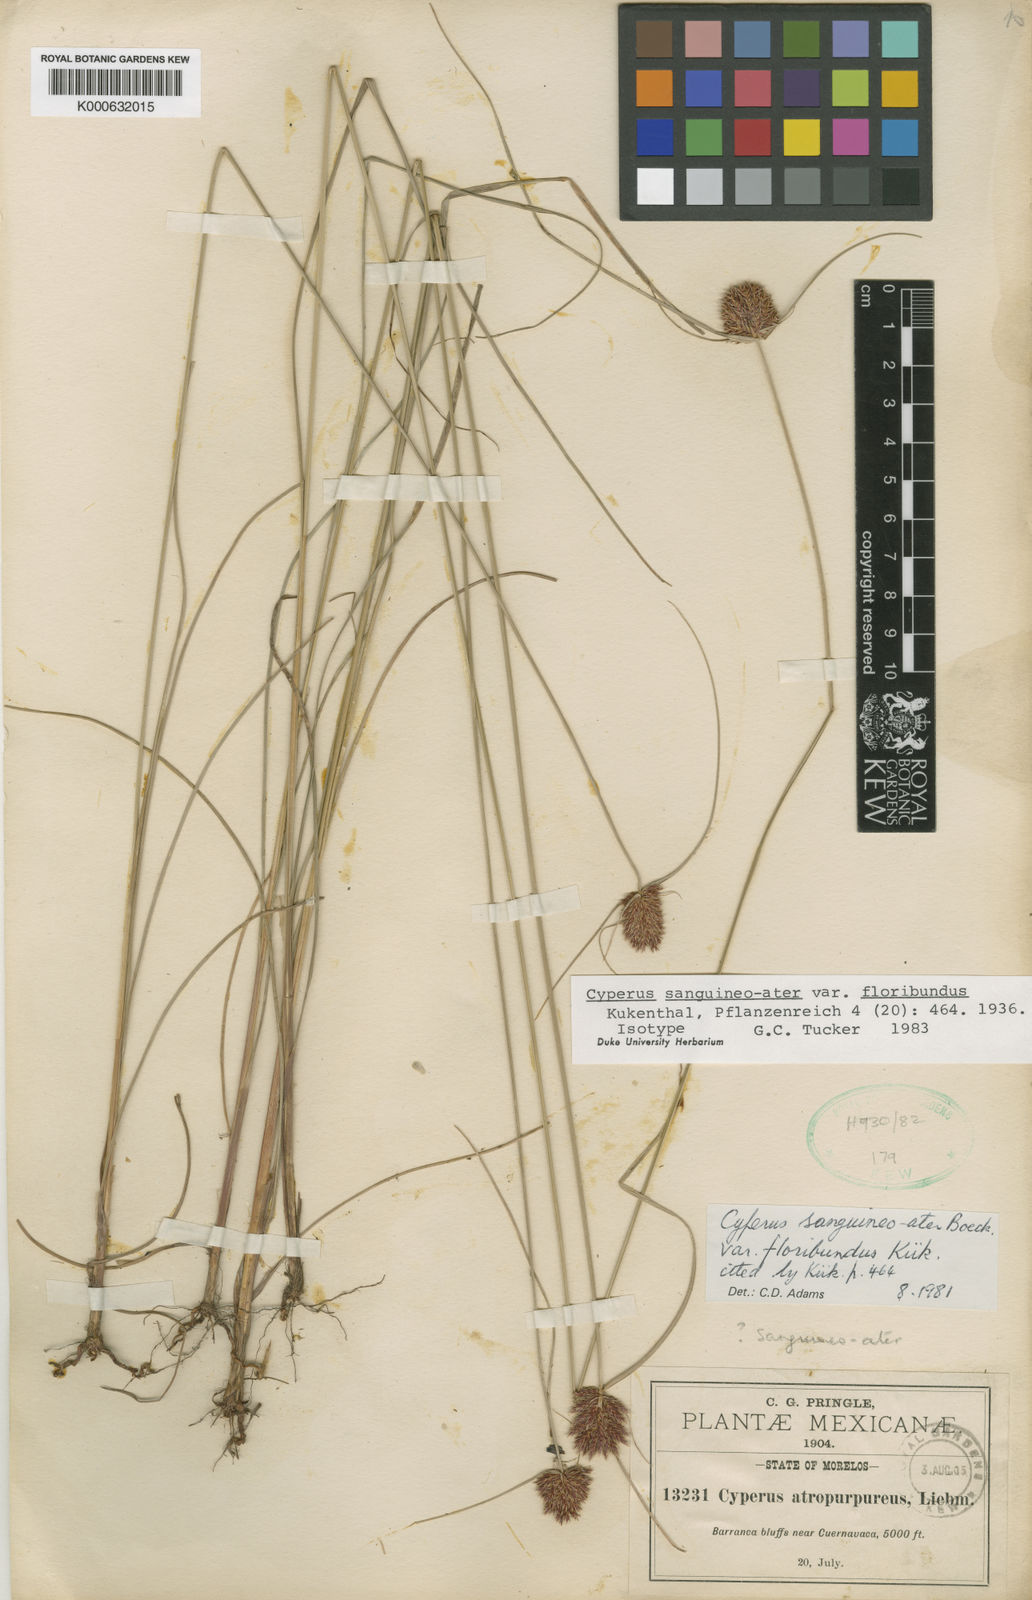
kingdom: Plantae
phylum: Tracheophyta
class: Liliopsida
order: Poales
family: Cyperaceae
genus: Cyperus
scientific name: Cyperus sanguineoater
